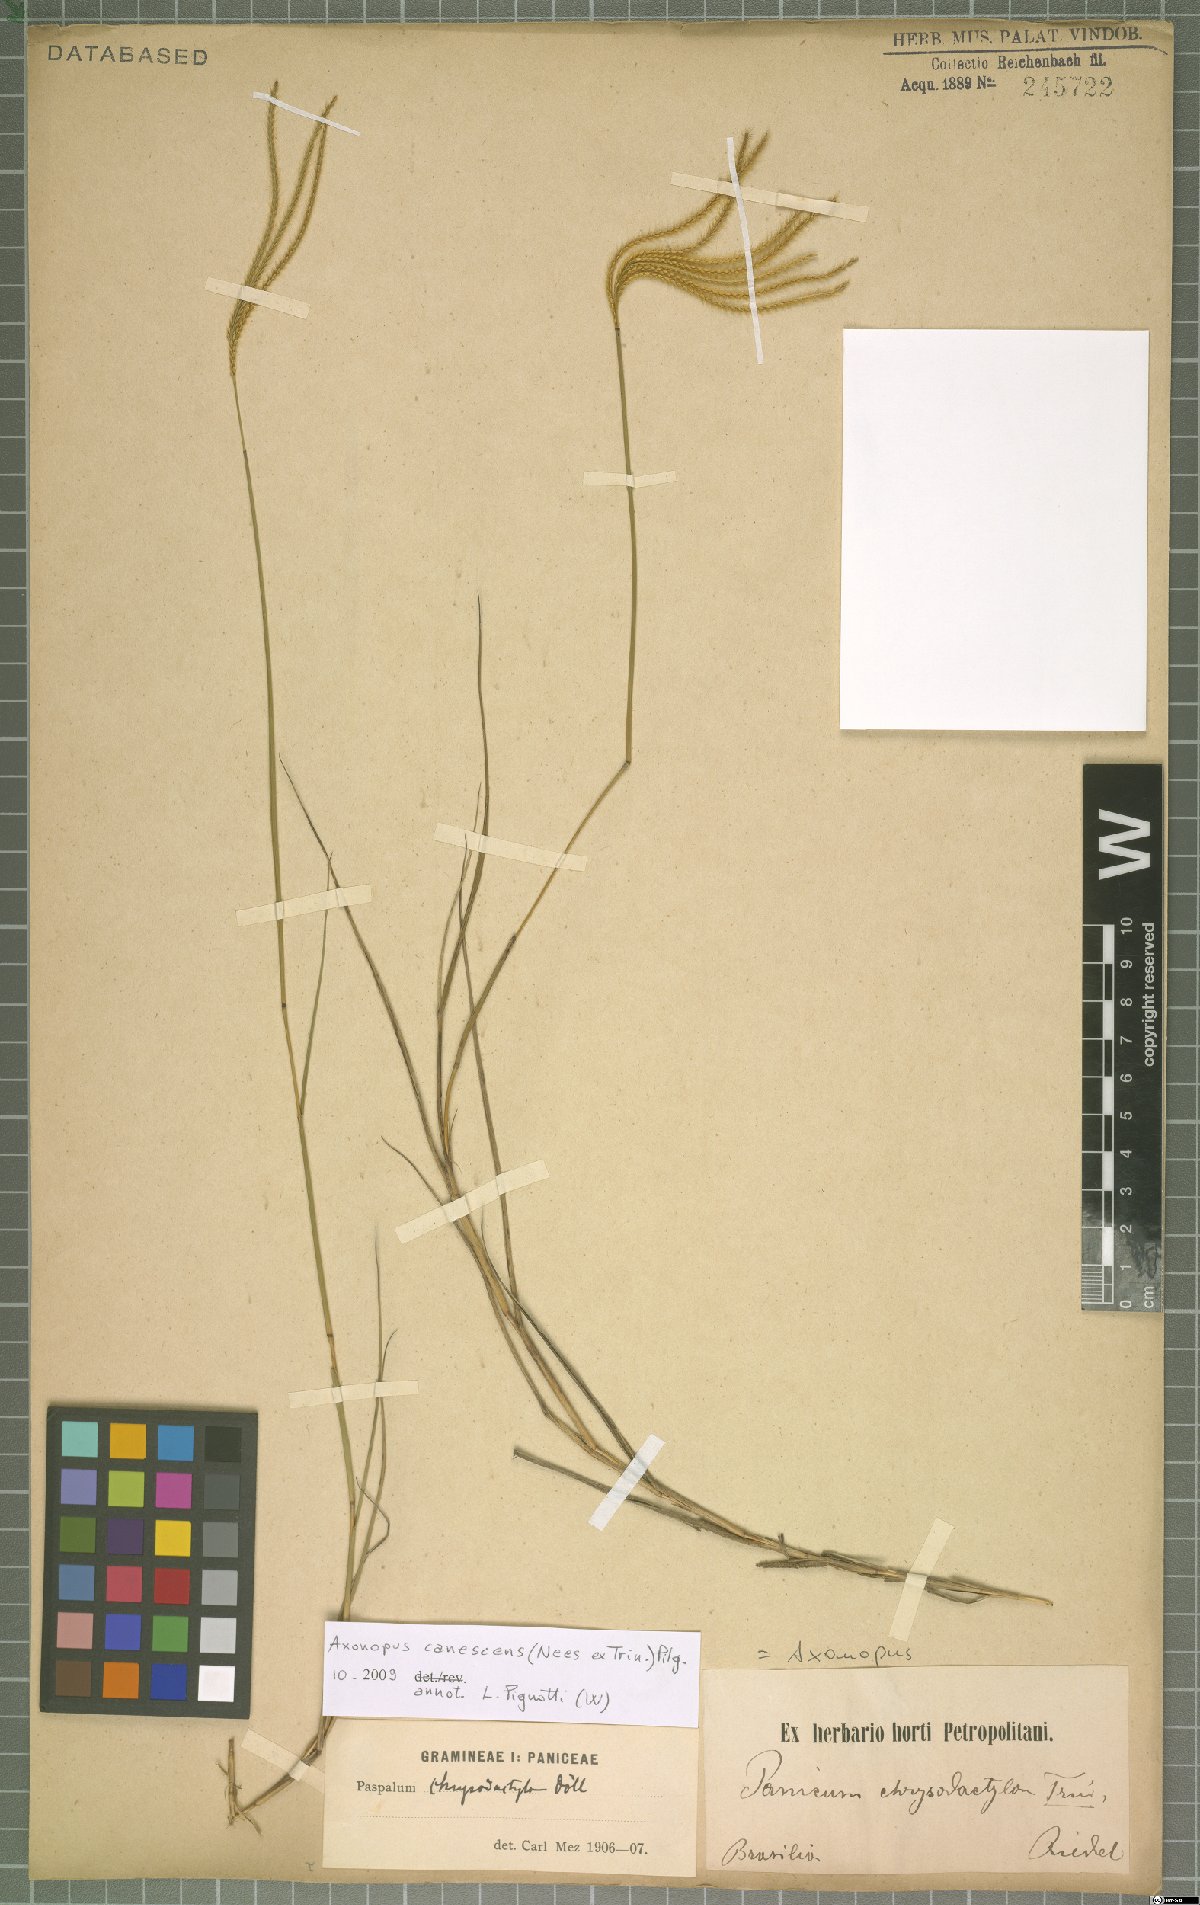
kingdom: Plantae
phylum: Tracheophyta
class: Liliopsida
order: Poales
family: Poaceae
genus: Axonopus
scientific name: Axonopus aureus
